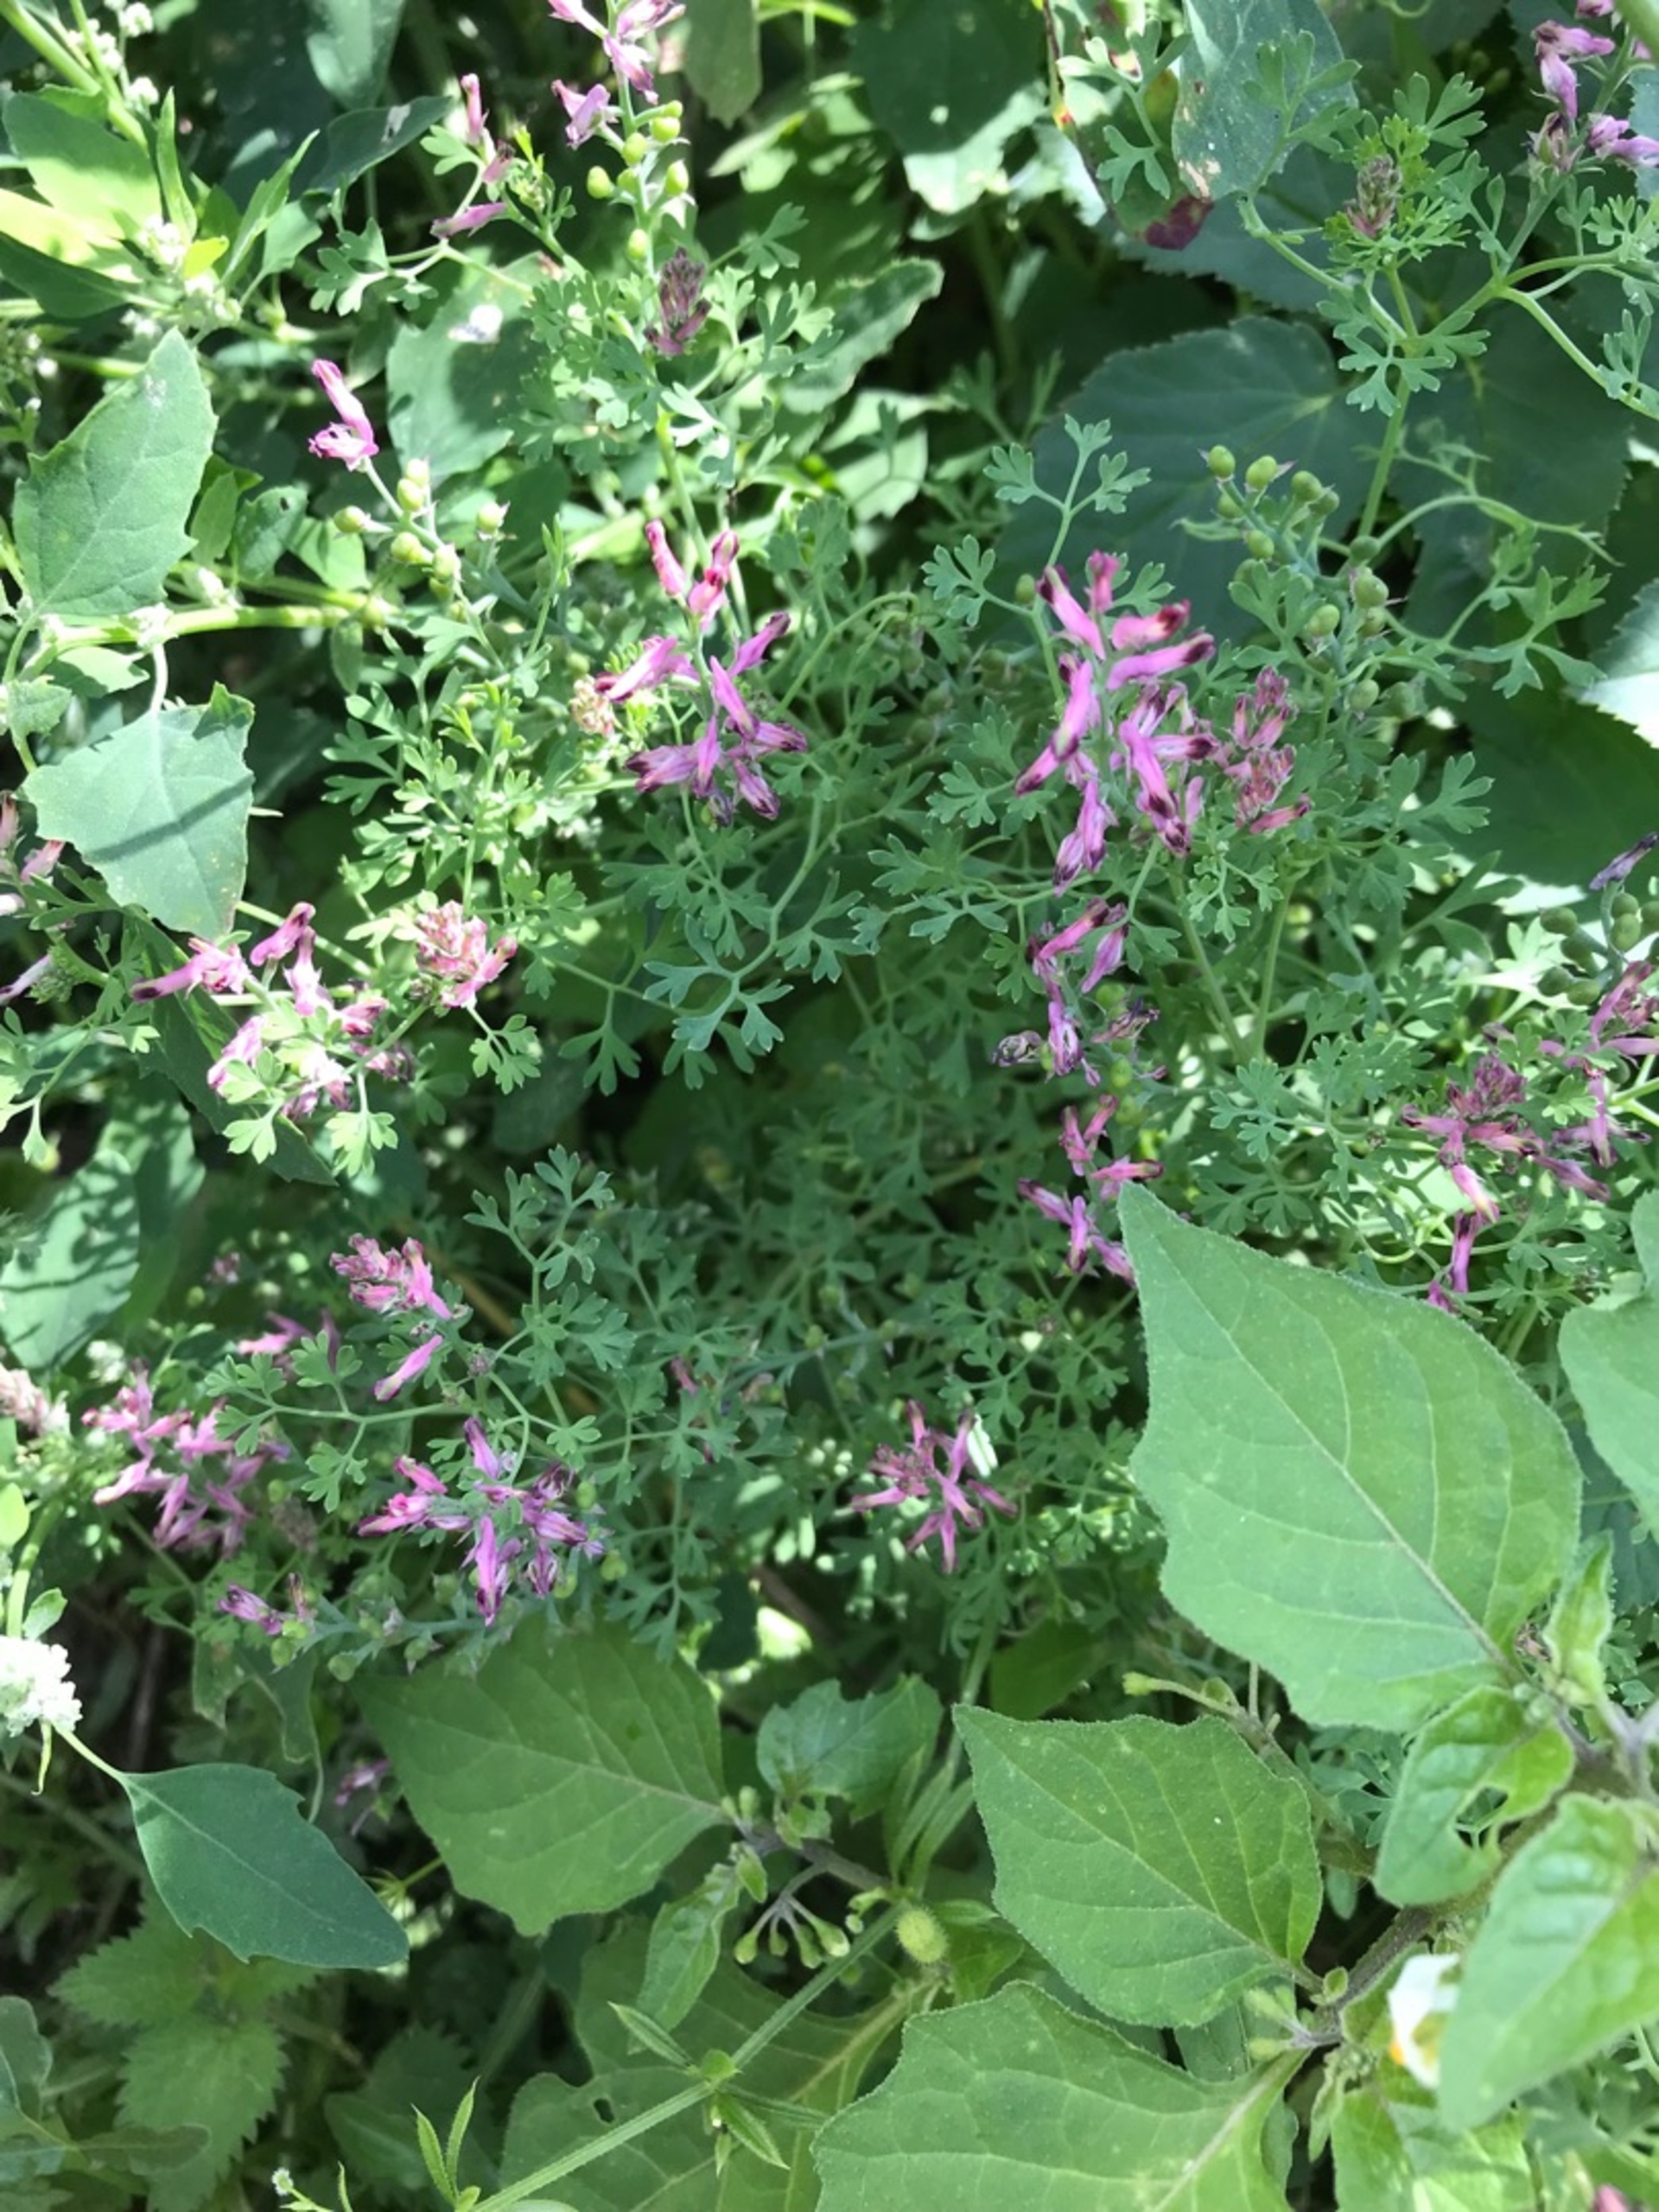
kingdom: Plantae
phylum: Tracheophyta
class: Magnoliopsida
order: Ranunculales
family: Papaveraceae
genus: Fumaria
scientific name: Fumaria officinalis
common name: Læge-jordrøg
